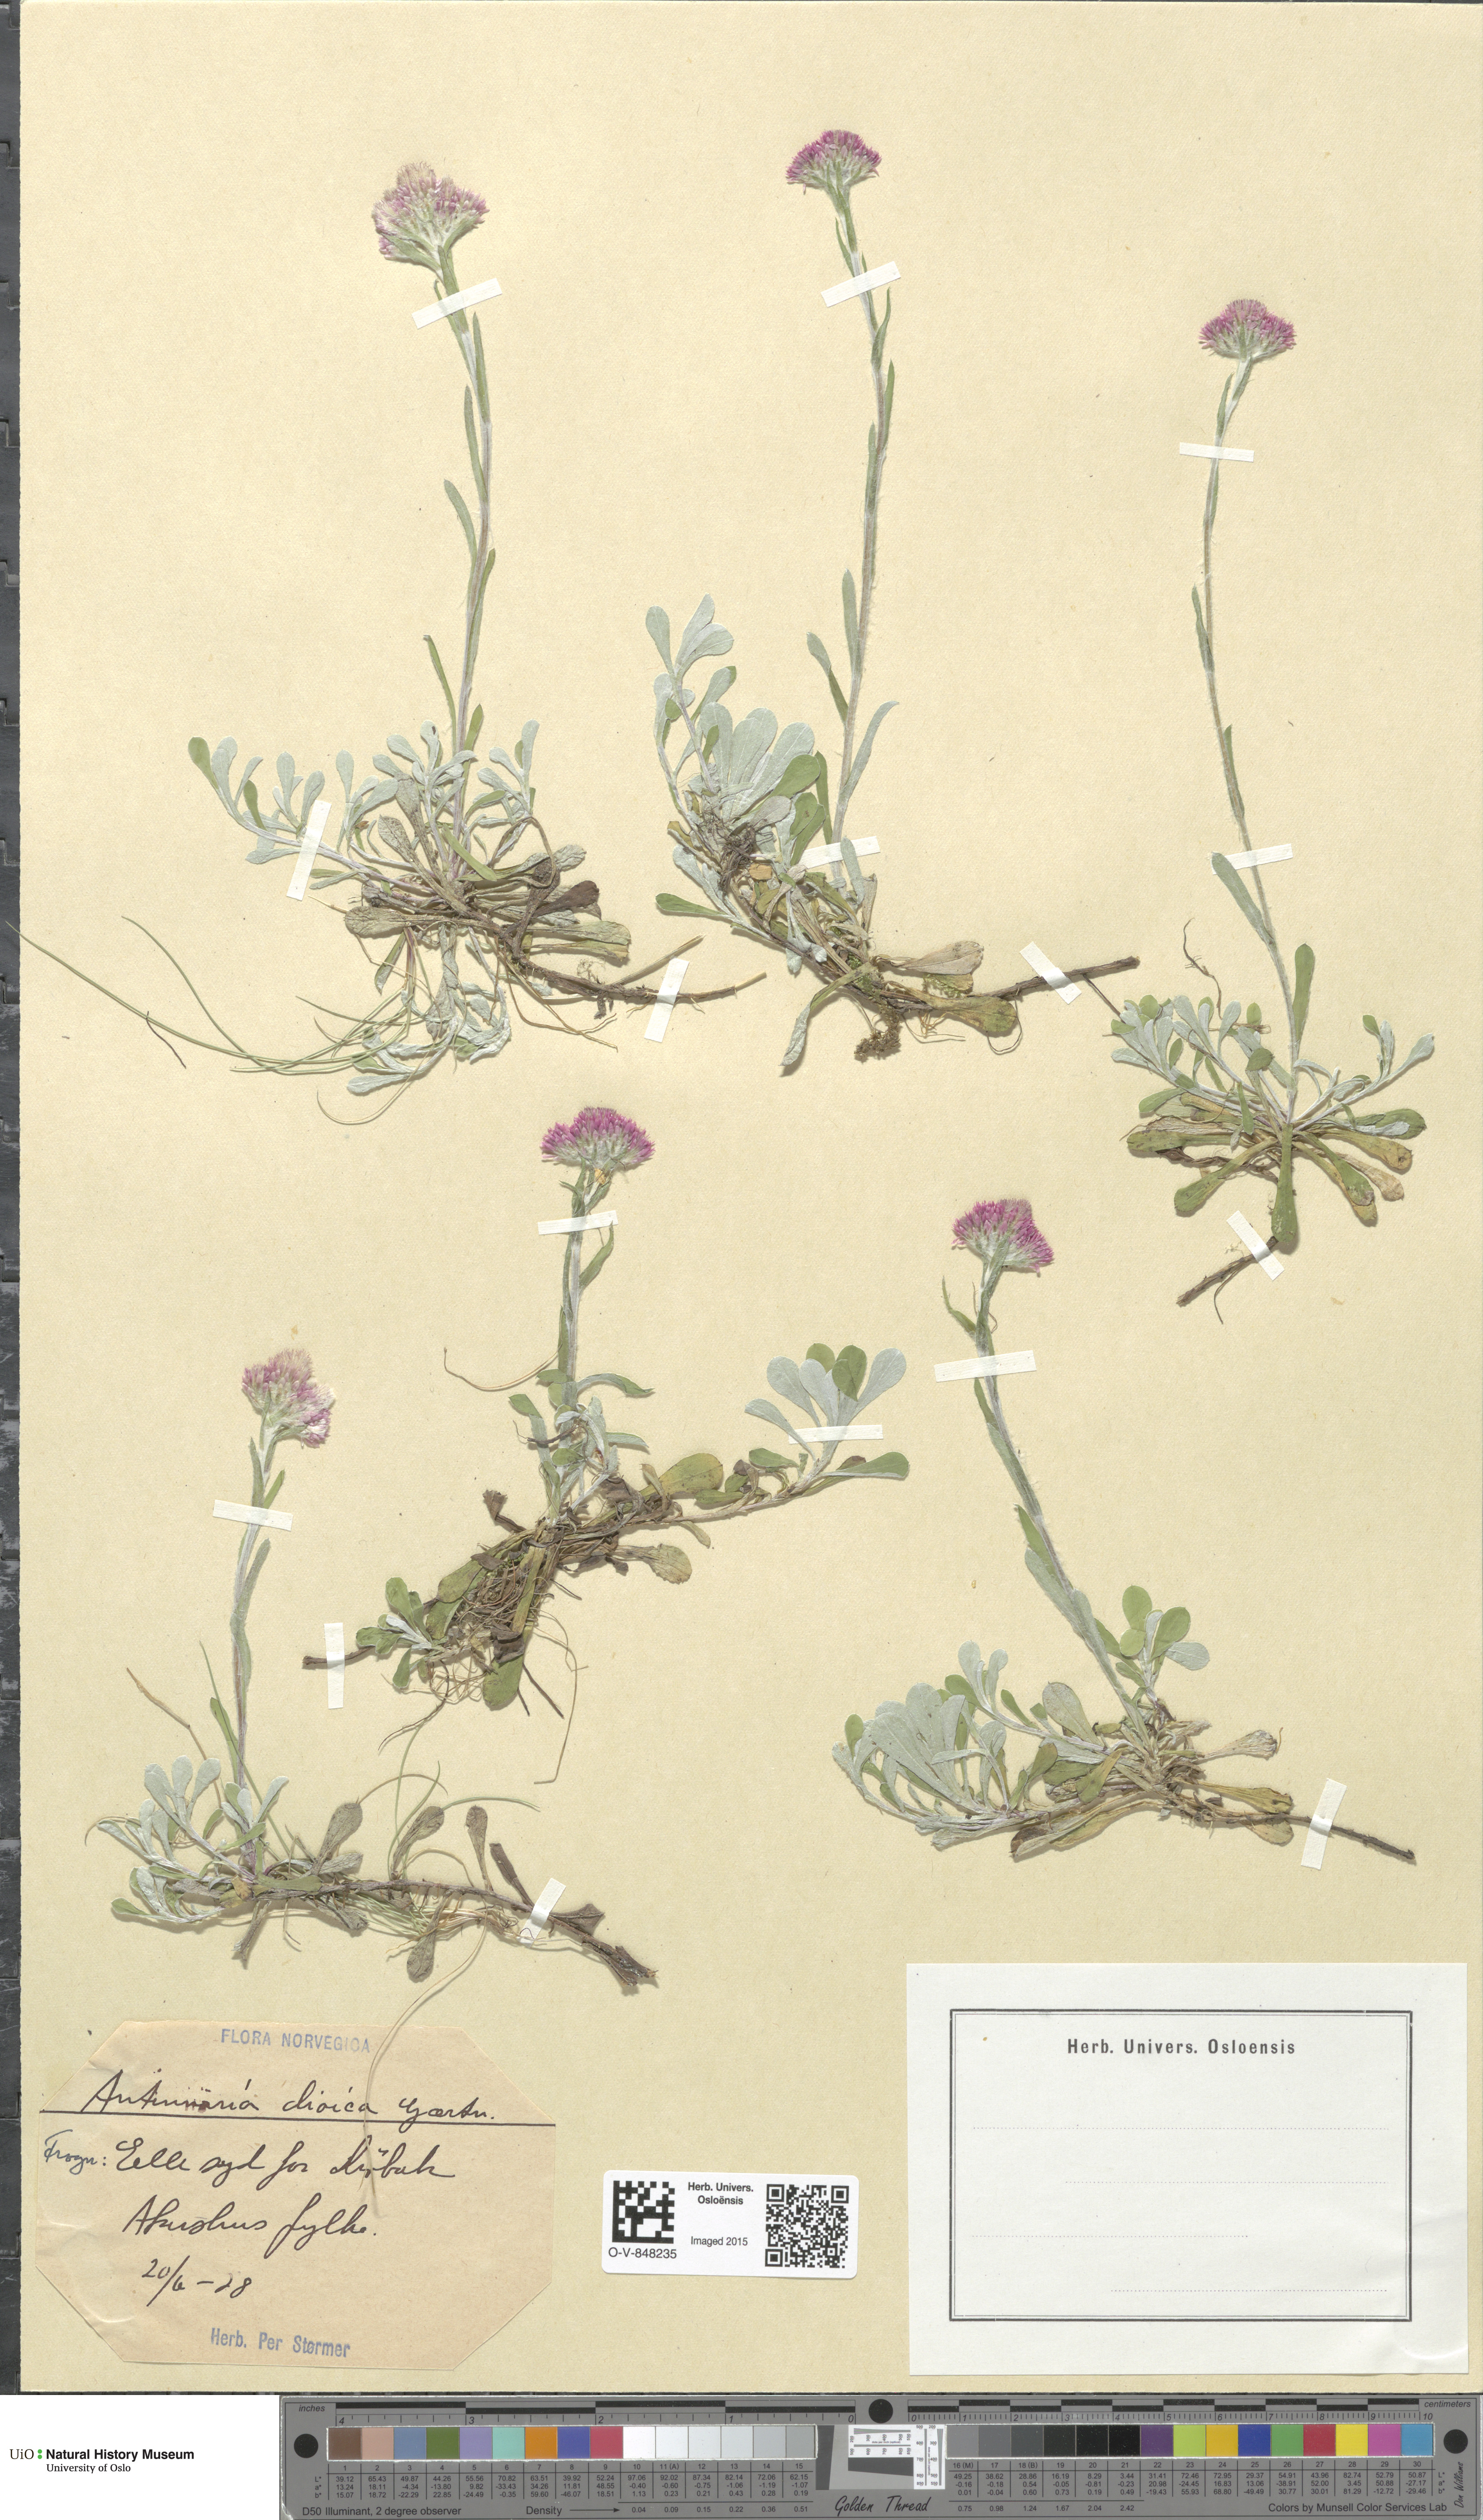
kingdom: Plantae
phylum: Tracheophyta
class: Magnoliopsida
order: Asterales
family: Asteraceae
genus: Antennaria
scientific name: Antennaria dioica
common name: Mountain everlasting
